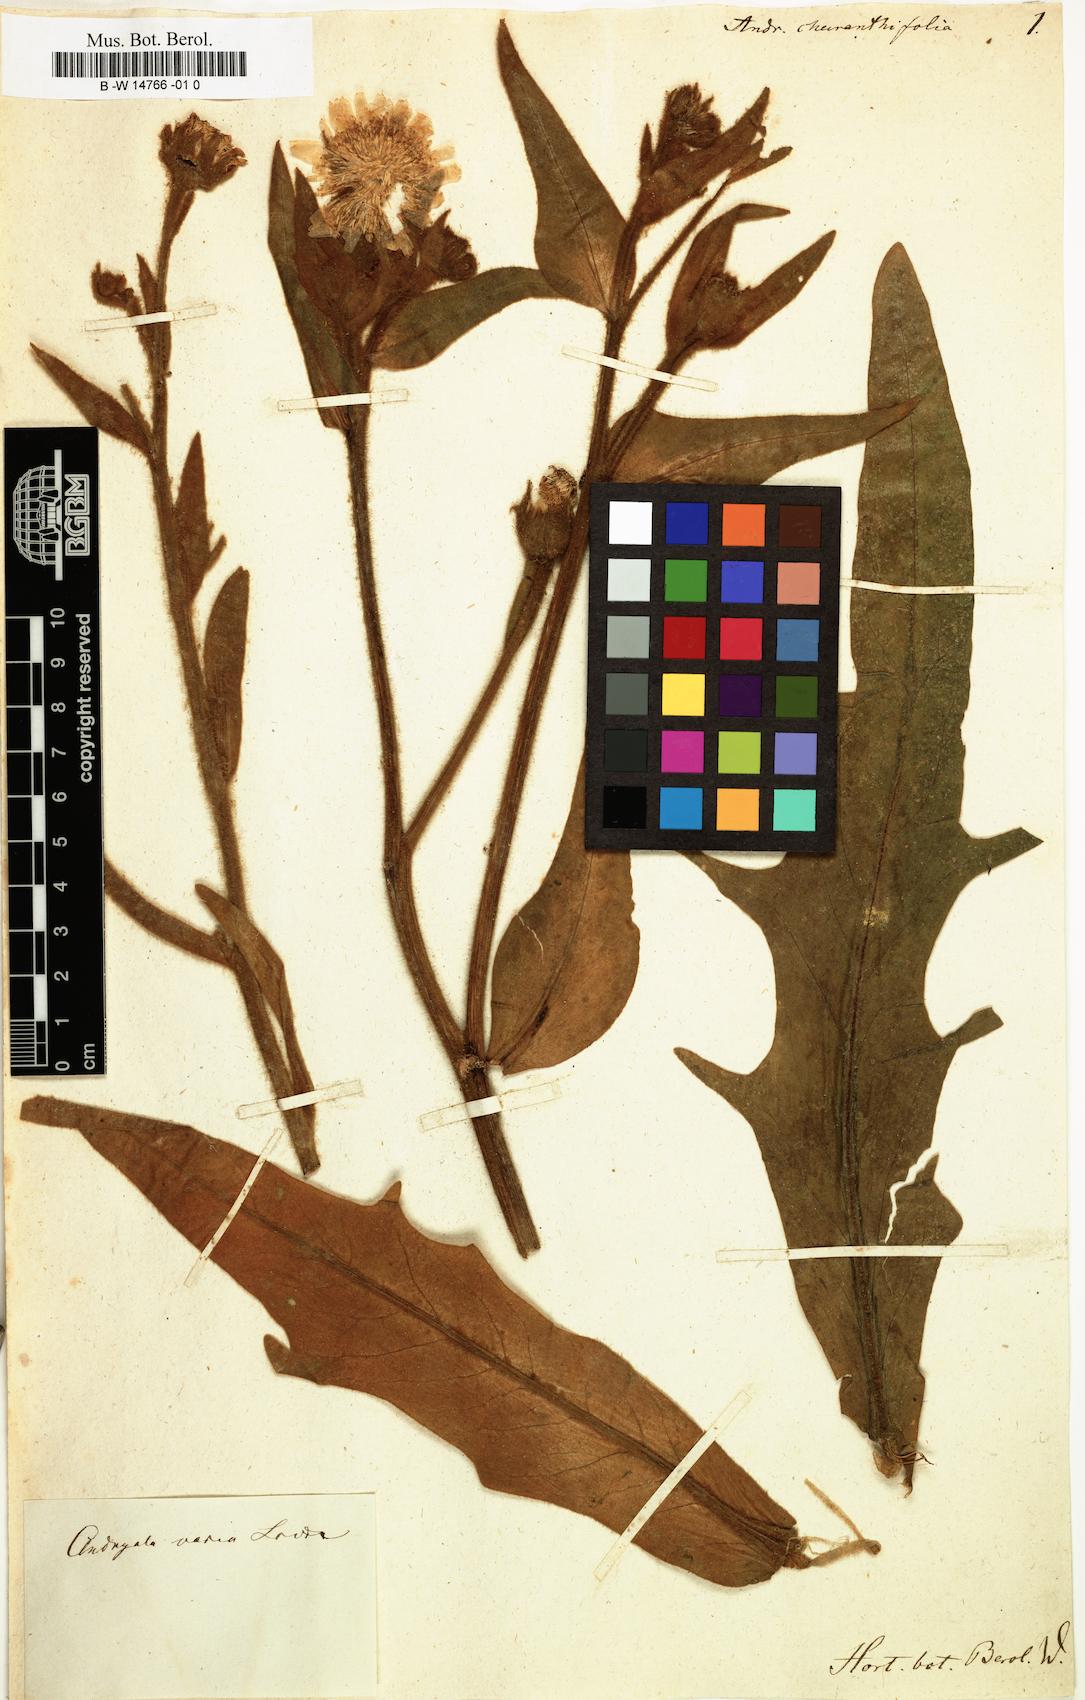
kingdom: Plantae
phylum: Tracheophyta
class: Magnoliopsida
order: Asterales
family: Asteraceae
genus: Andryala
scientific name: Andryala
